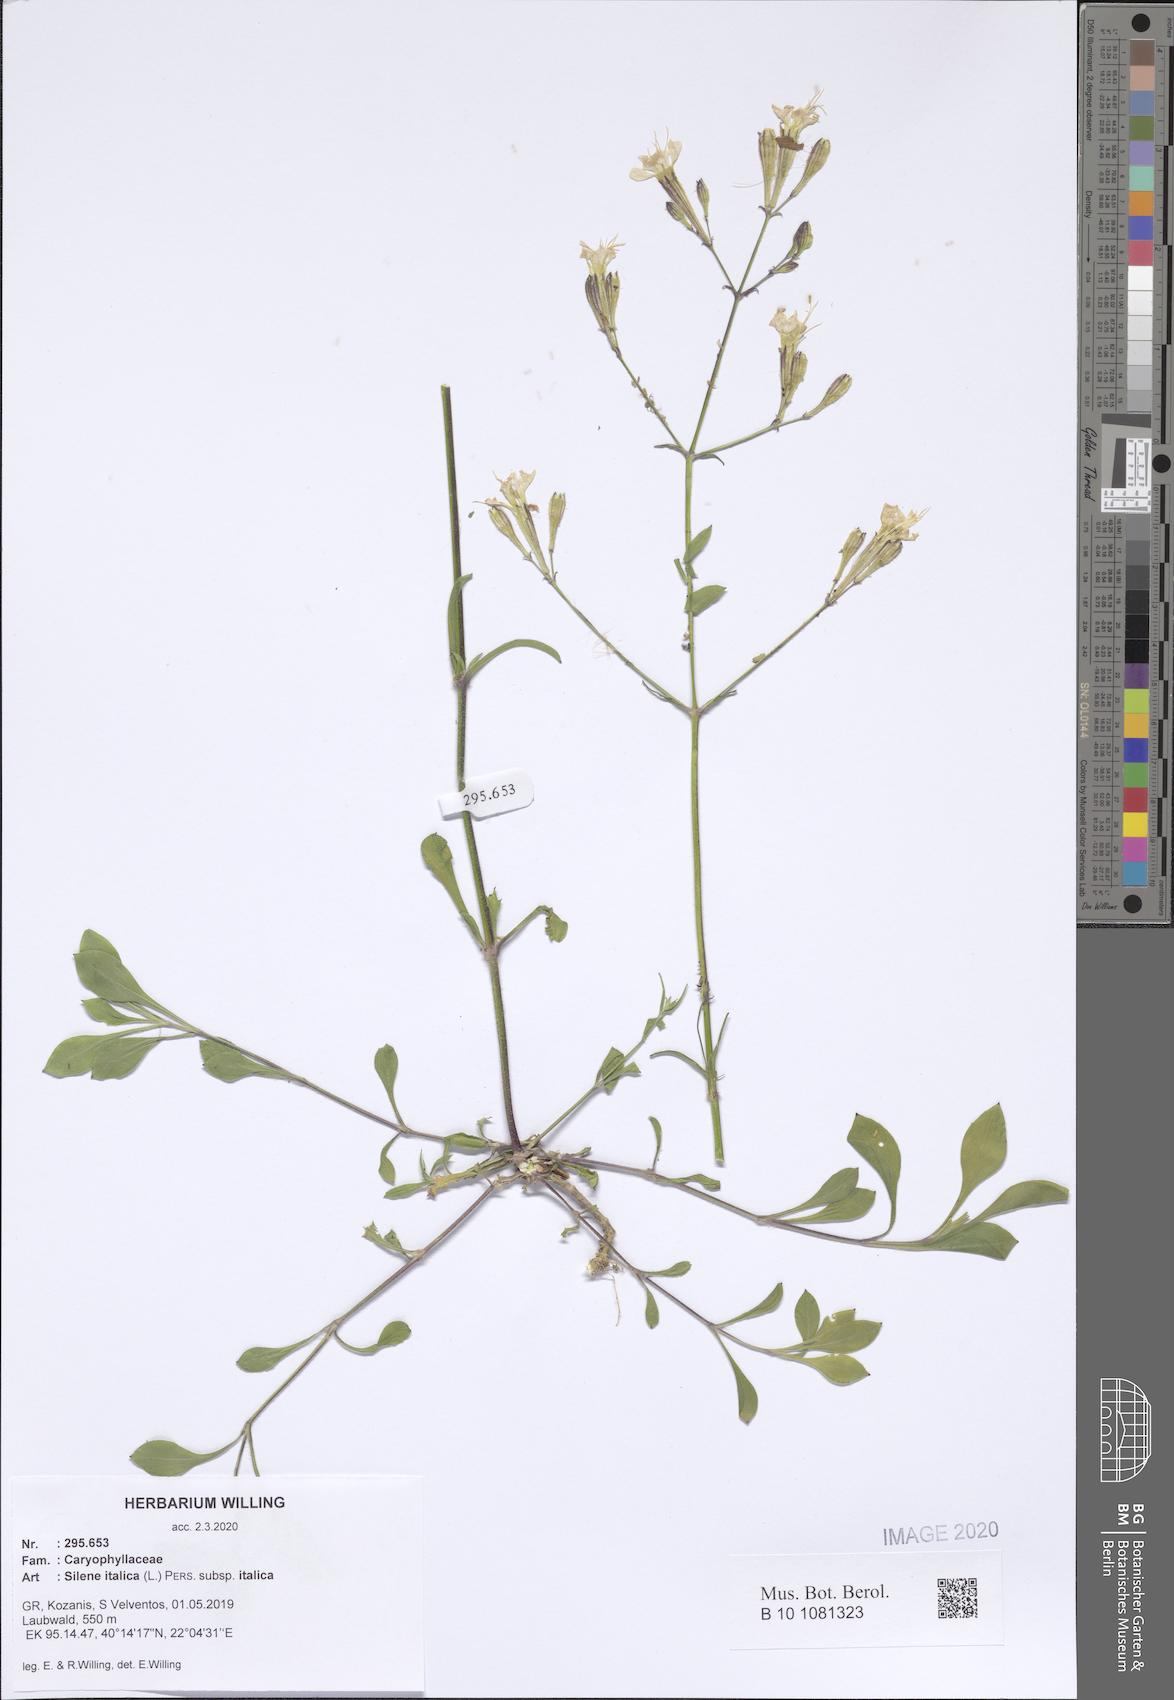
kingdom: Plantae
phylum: Tracheophyta
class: Magnoliopsida
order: Caryophyllales
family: Caryophyllaceae
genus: Silene
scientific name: Silene italica
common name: Italian catchfly
